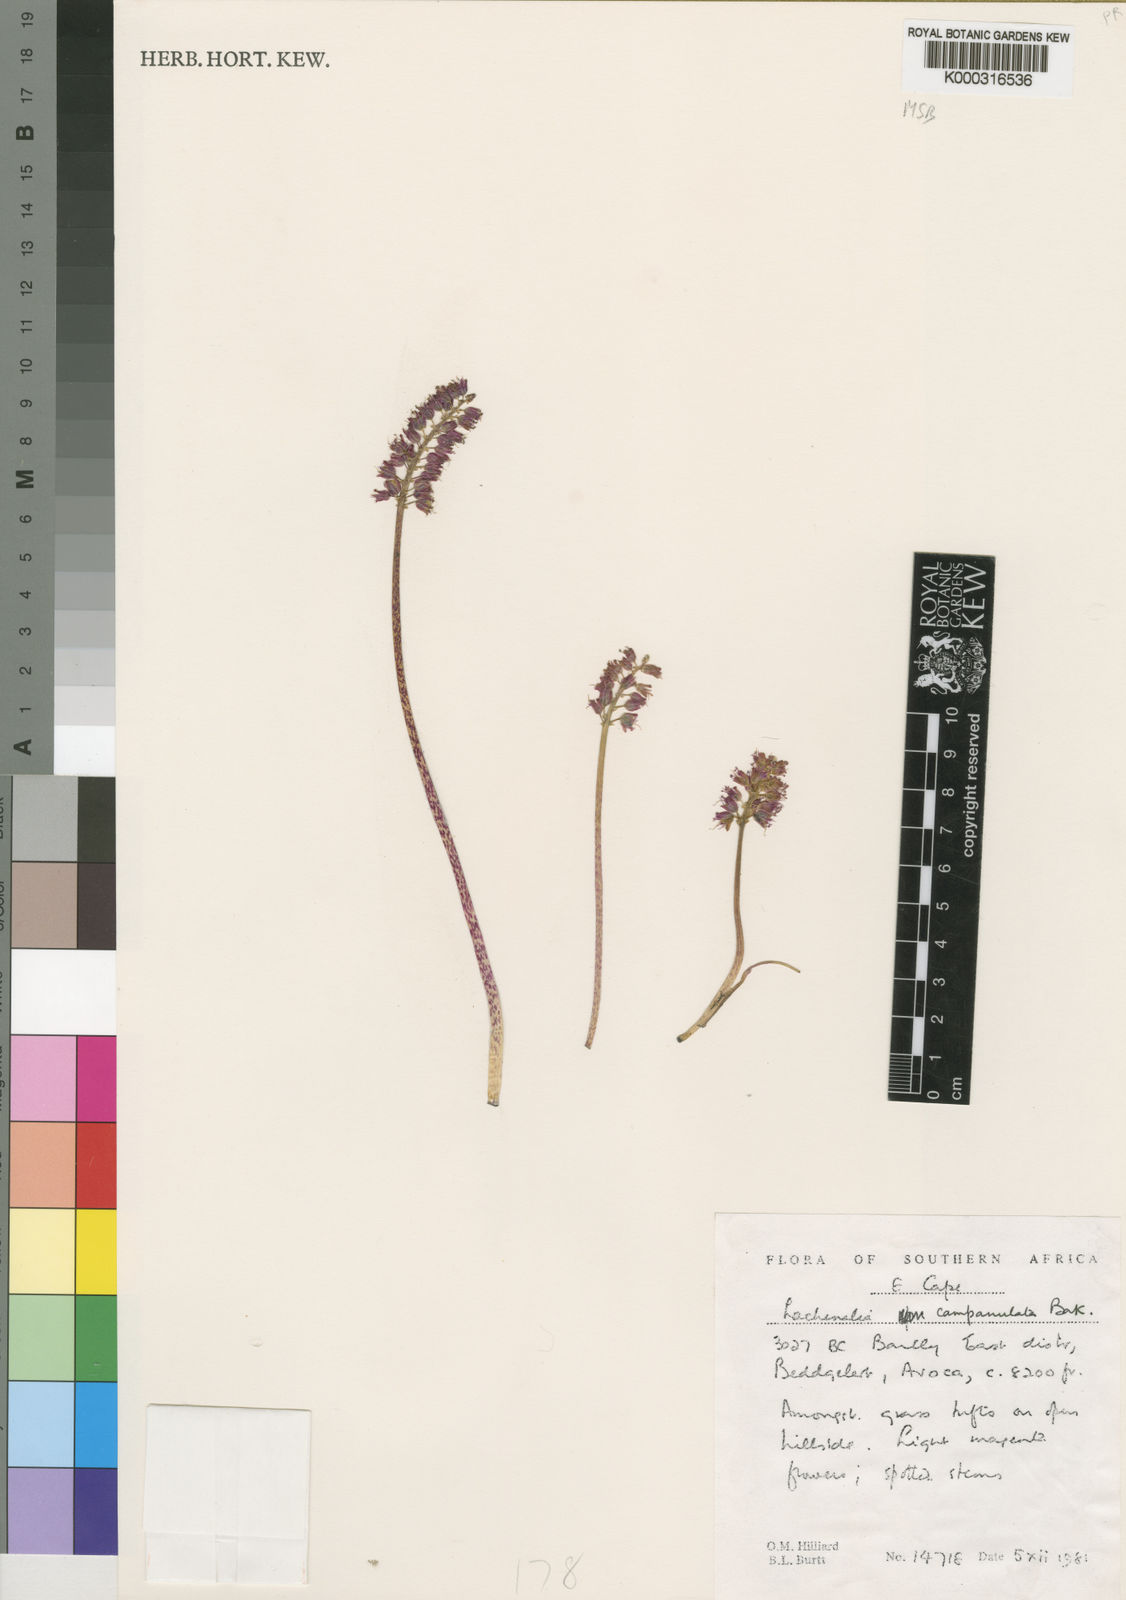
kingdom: Plantae
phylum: Tracheophyta
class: Liliopsida
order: Asparagales
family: Asparagaceae
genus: Lachenalia
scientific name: Lachenalia campanulata
